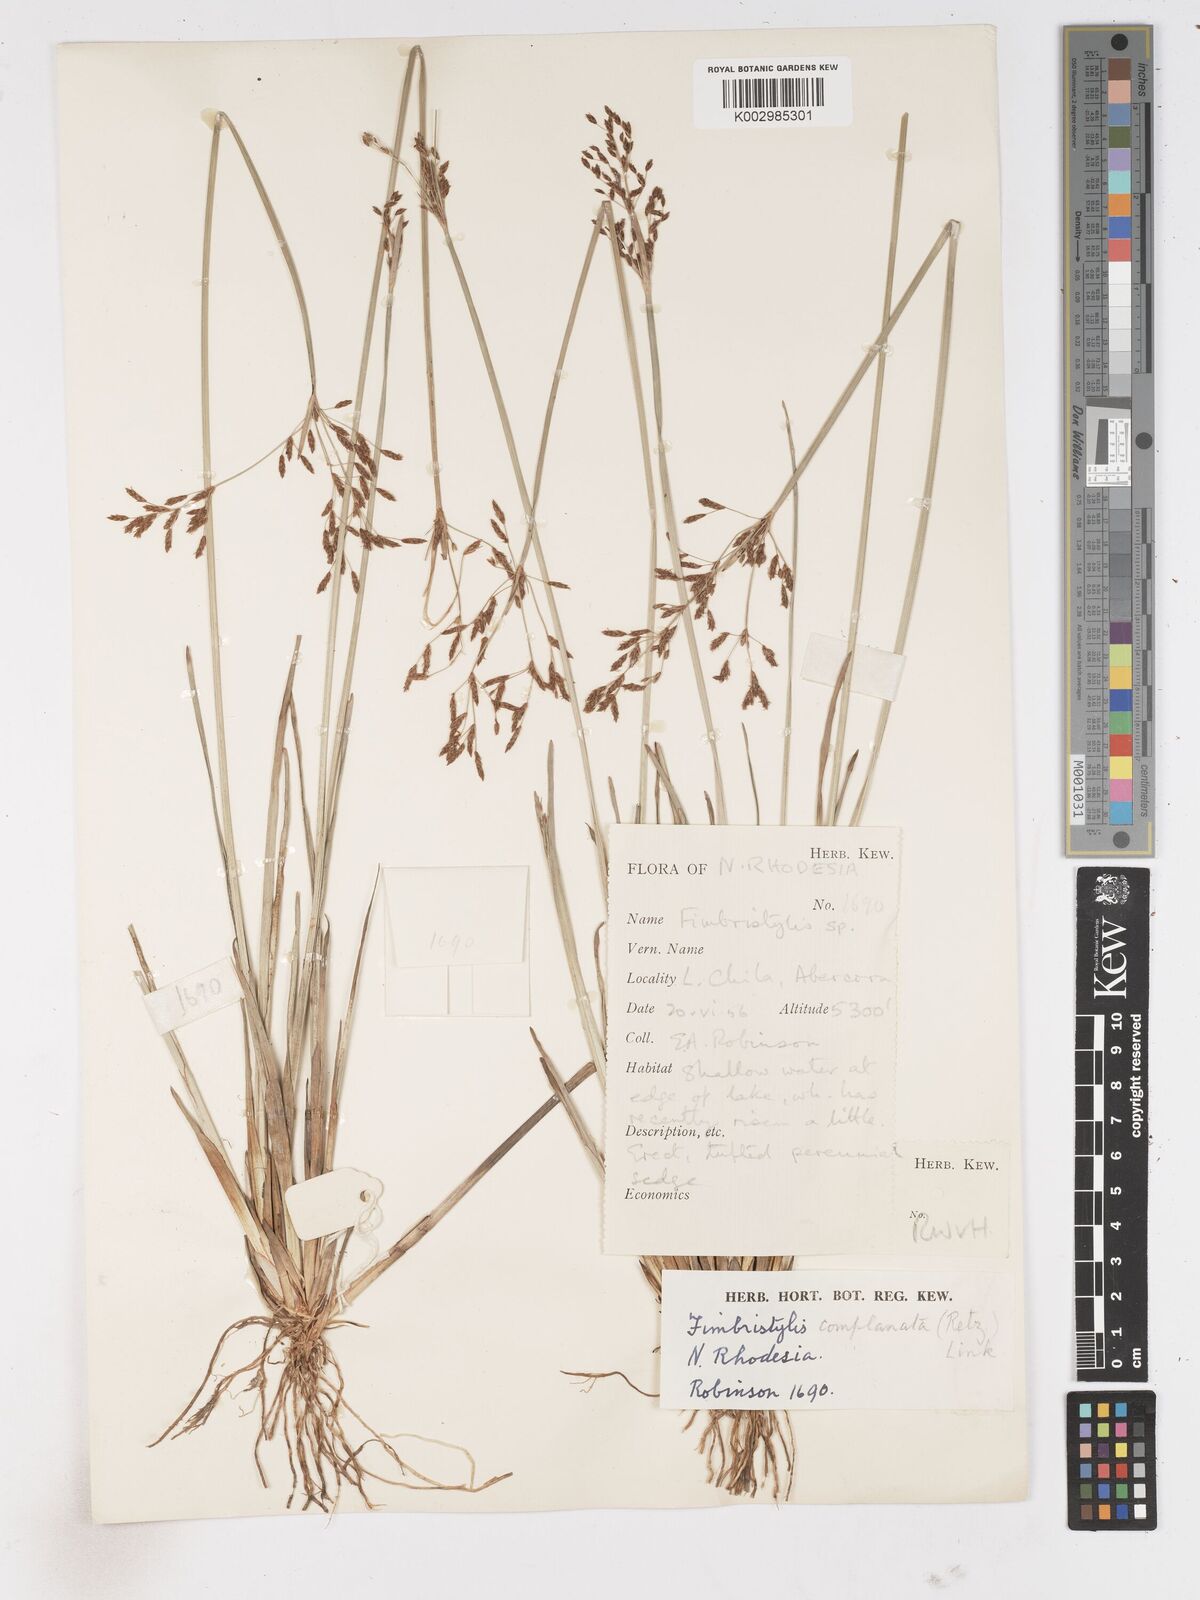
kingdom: Plantae
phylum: Tracheophyta
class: Liliopsida
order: Poales
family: Cyperaceae
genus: Fimbristylis
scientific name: Fimbristylis complanata
